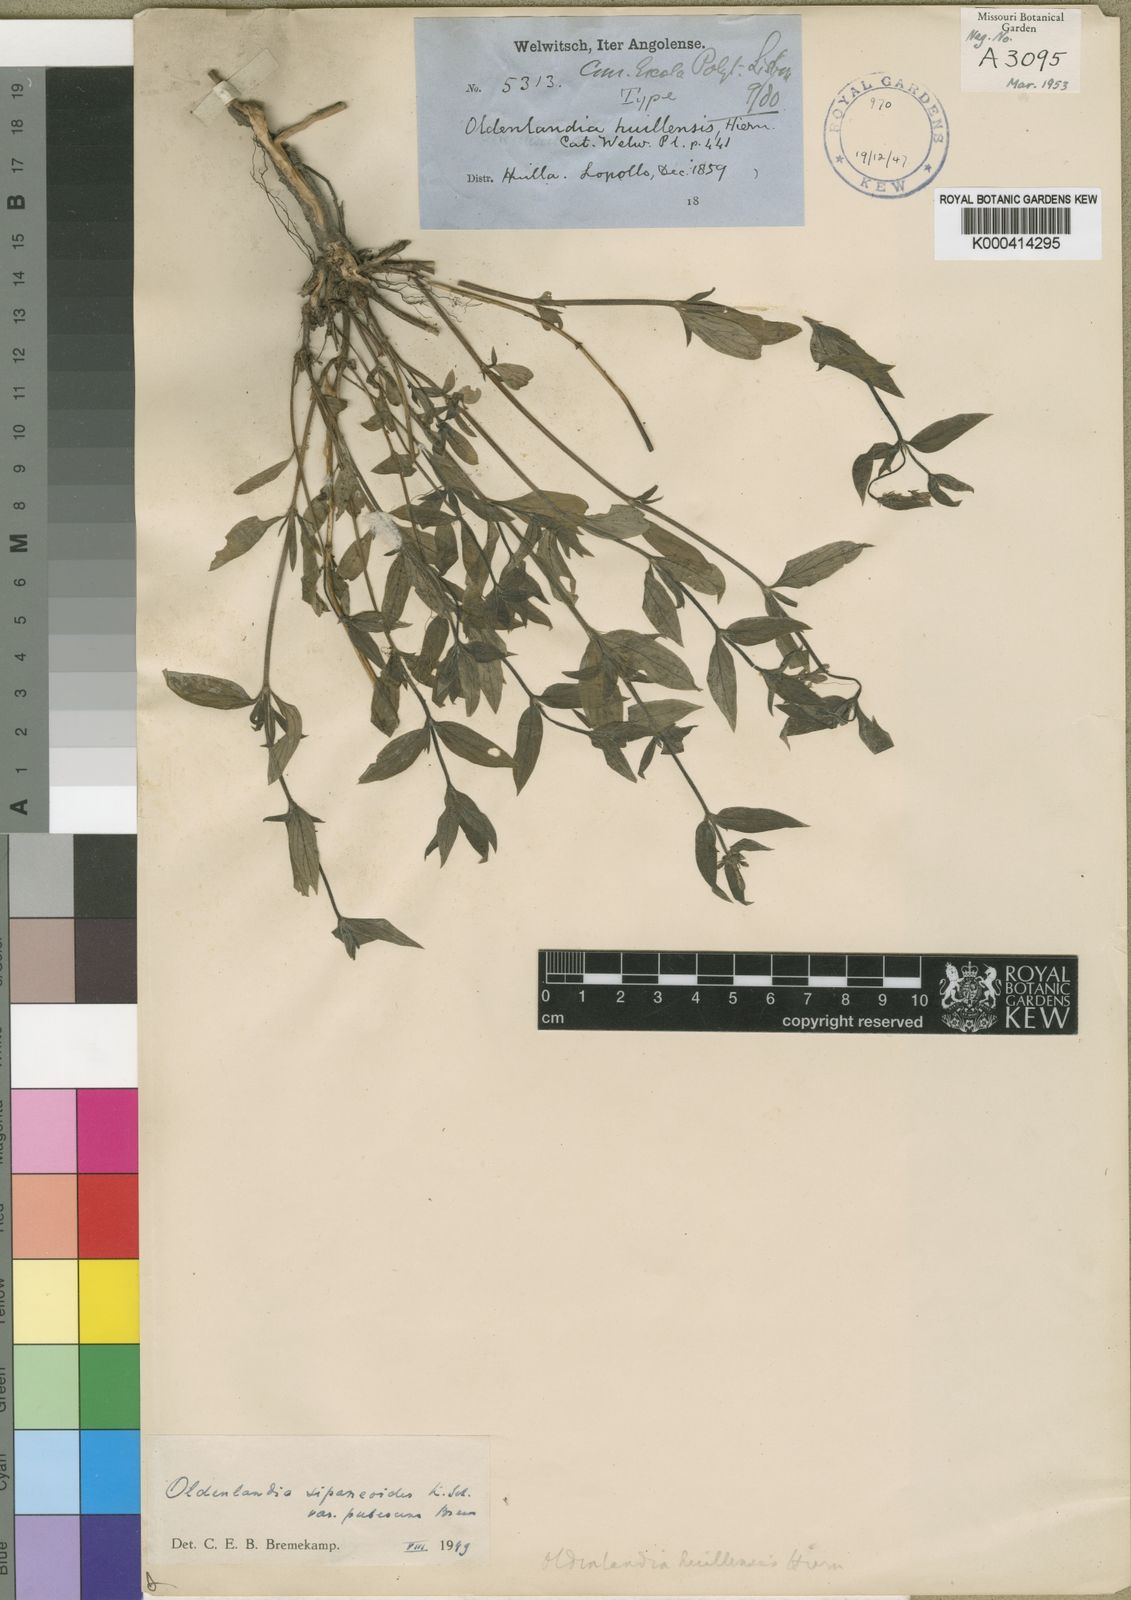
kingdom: Plantae
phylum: Tracheophyta
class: Magnoliopsida
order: Gentianales
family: Rubiaceae
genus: Oldenlandia
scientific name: Oldenlandia sipaneoides
